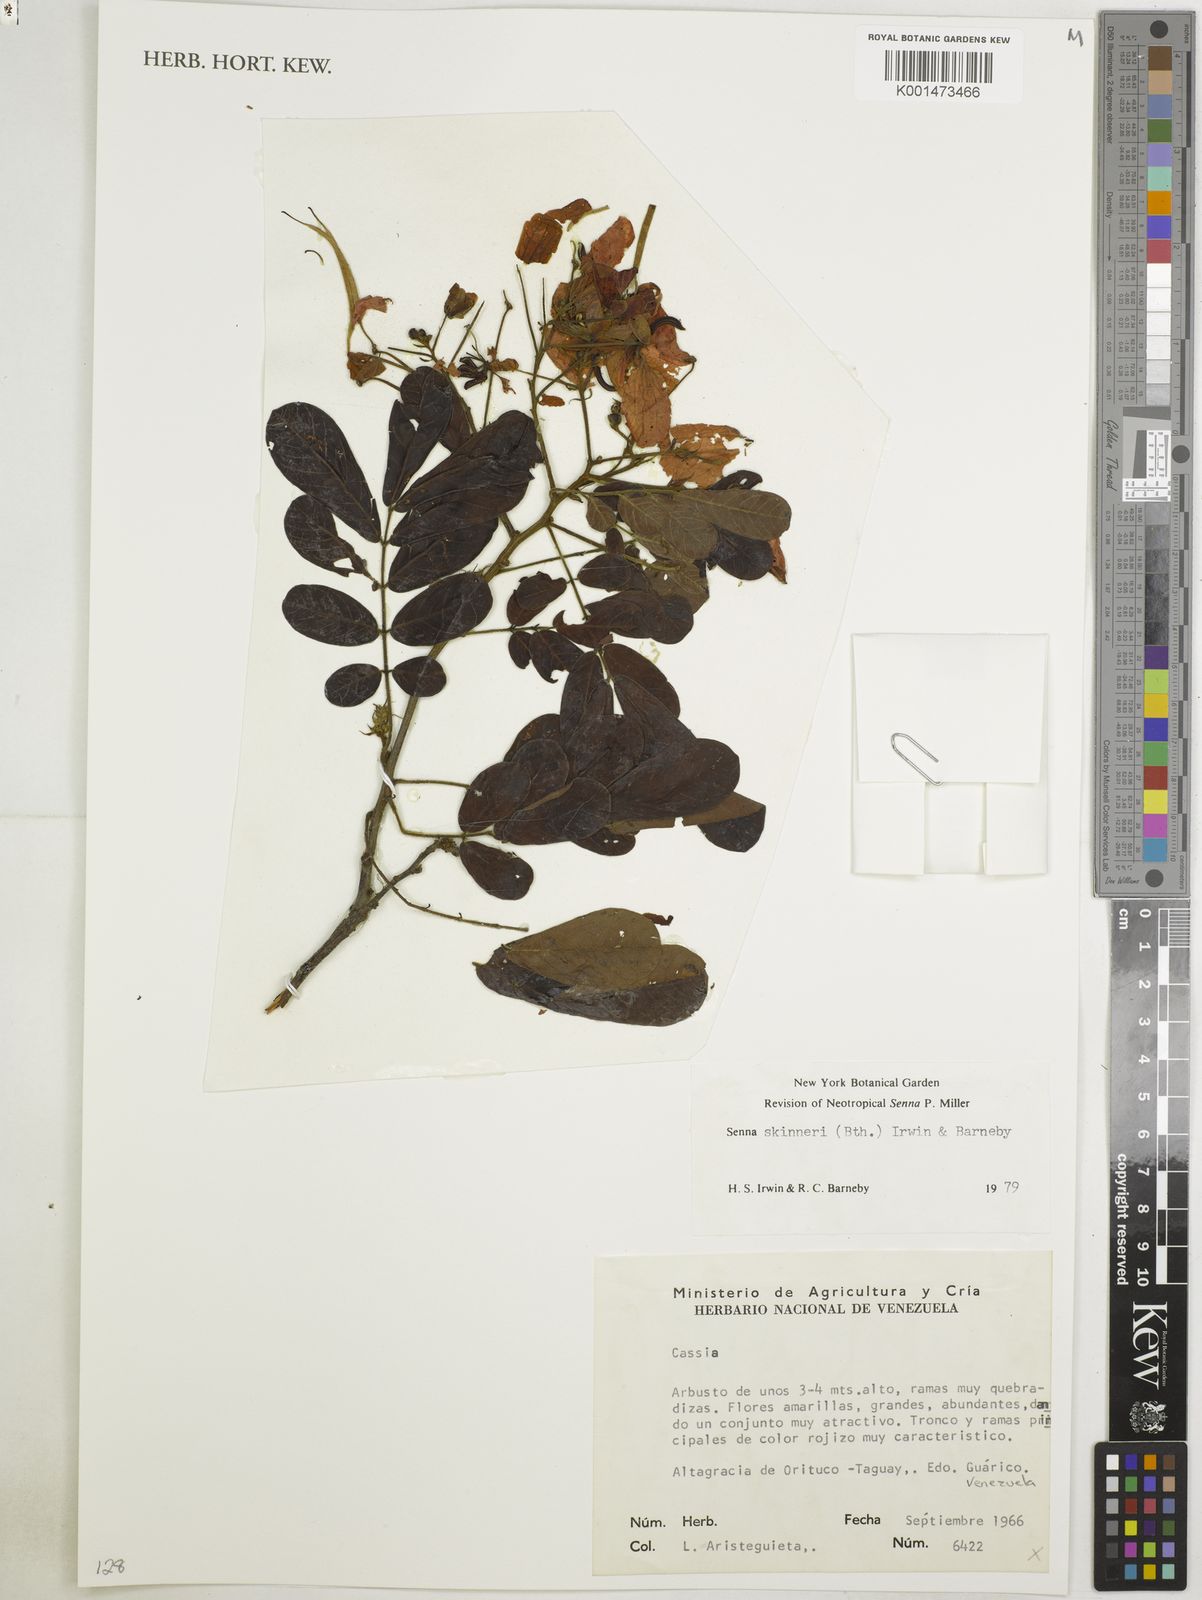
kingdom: Plantae
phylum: Tracheophyta
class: Magnoliopsida
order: Fabales
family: Fabaceae
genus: Senna
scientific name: Senna skinneri
